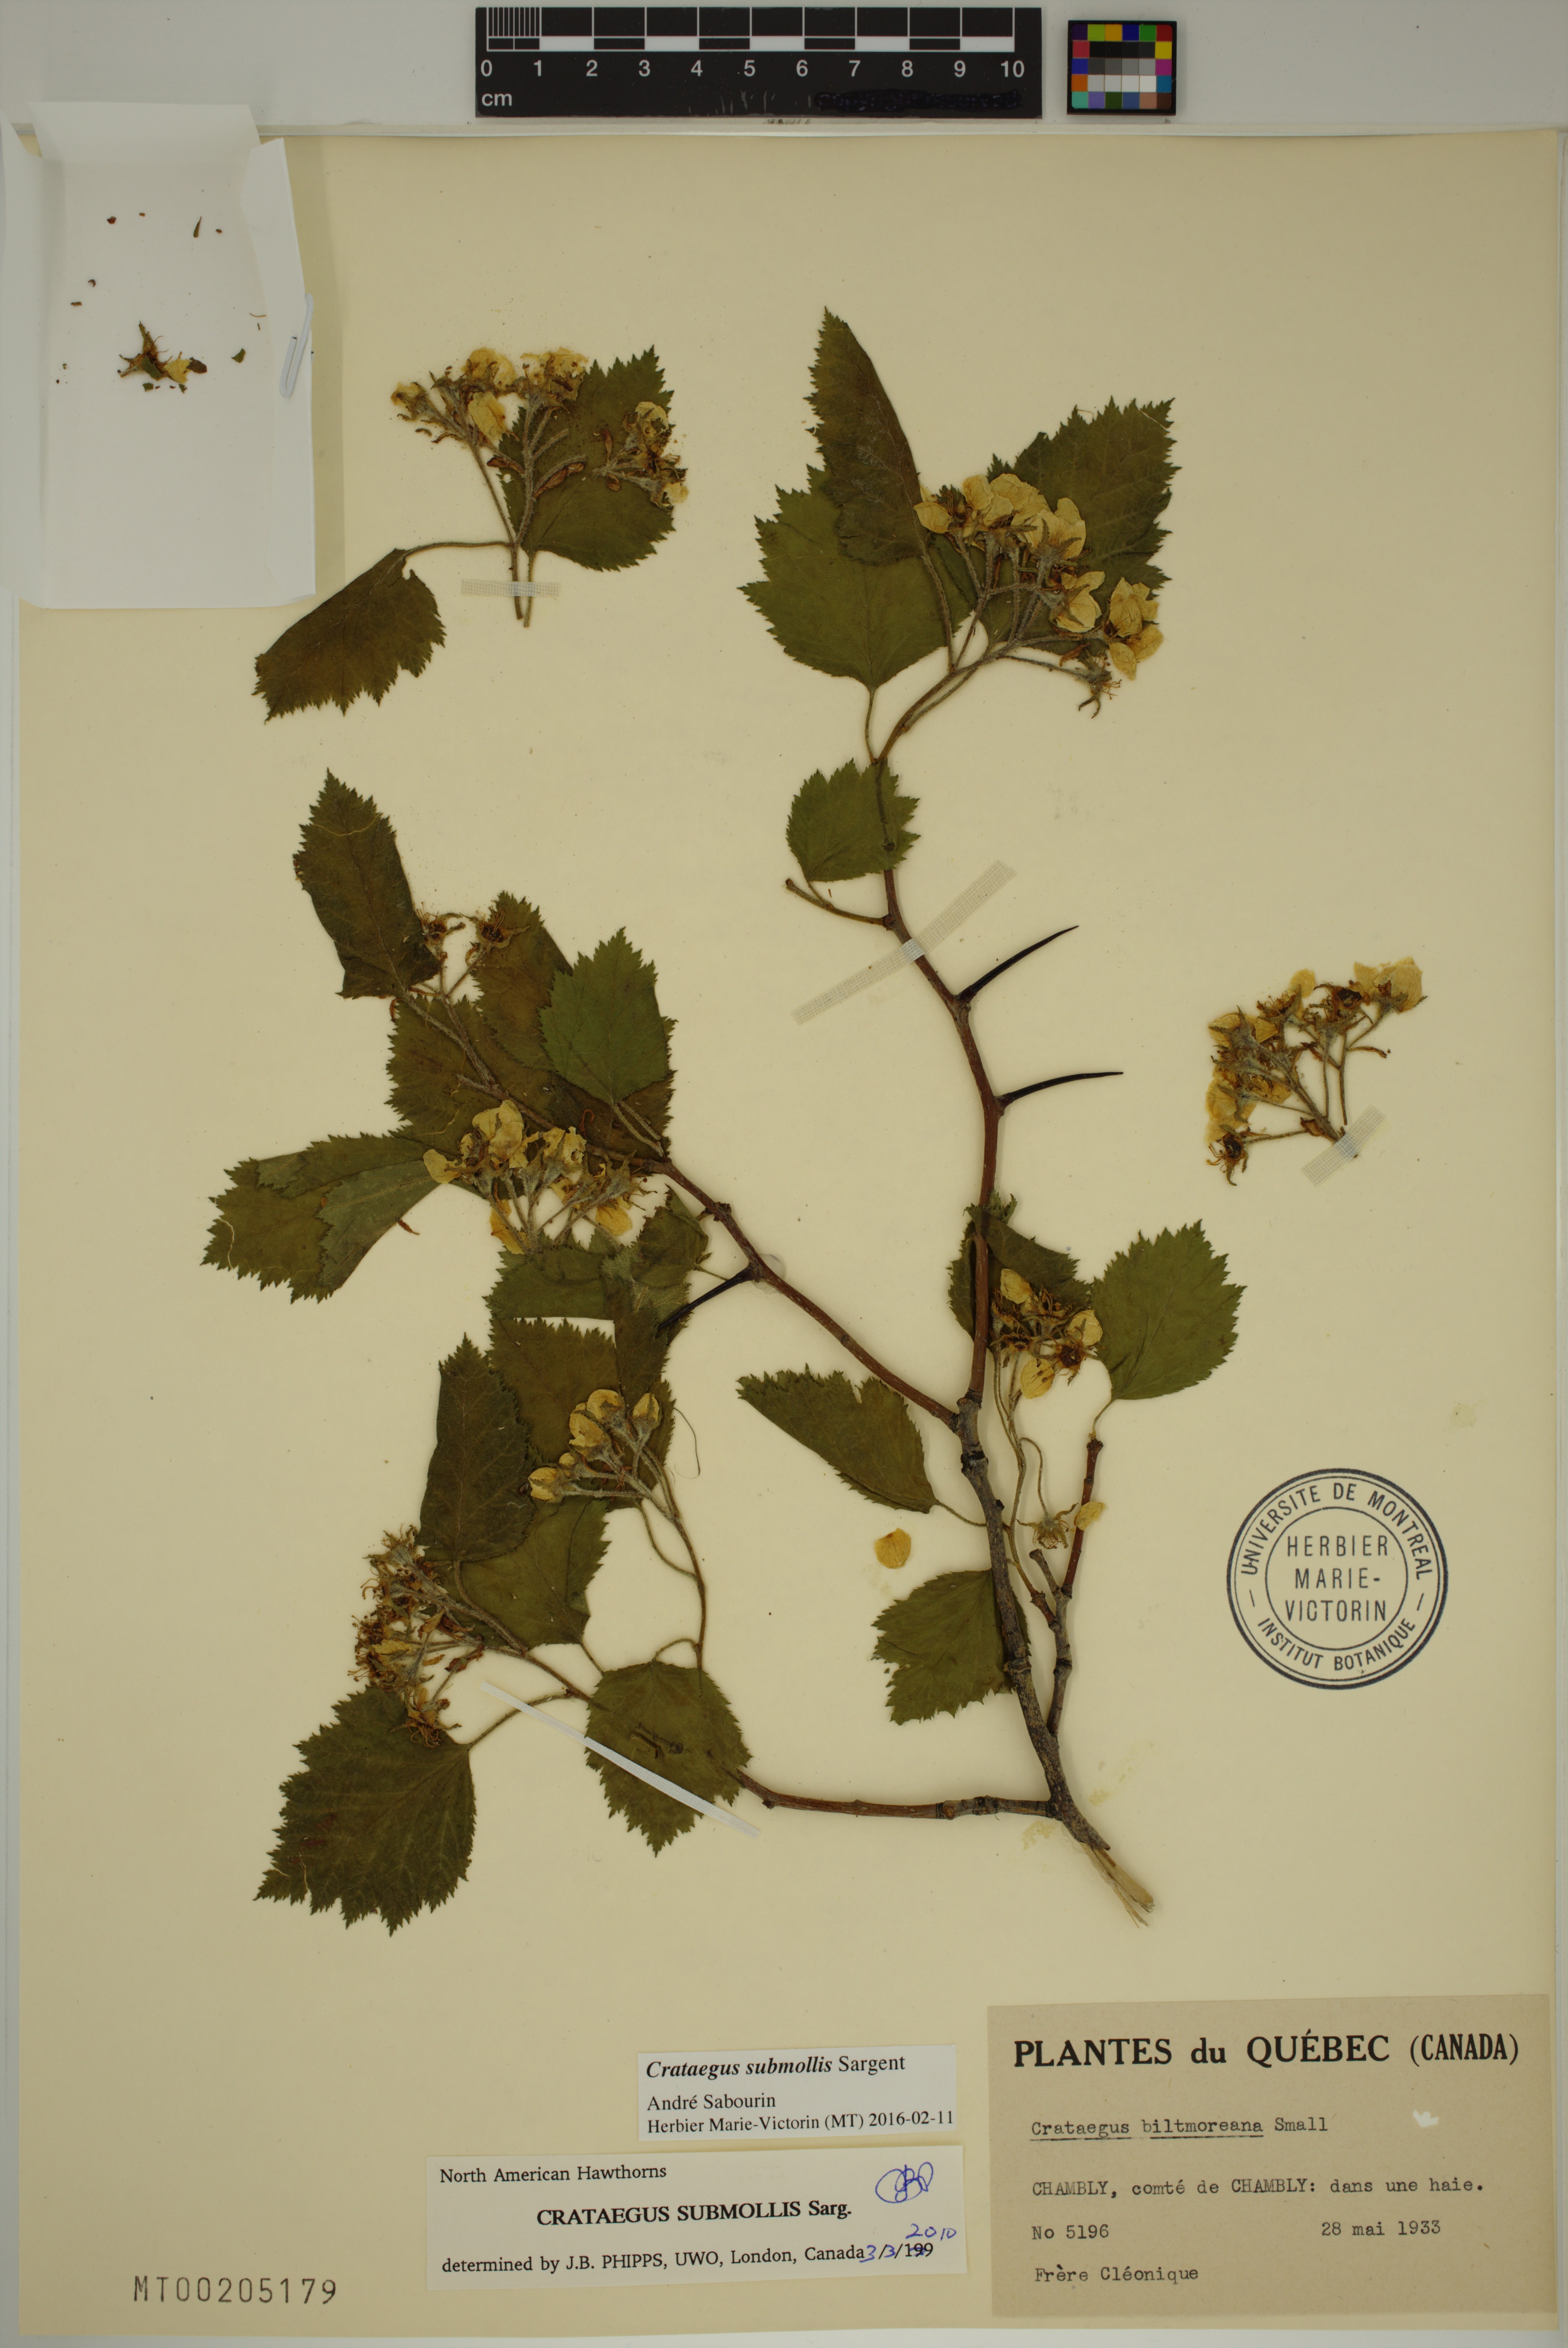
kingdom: Plantae
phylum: Tracheophyta
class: Magnoliopsida
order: Rosales
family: Rosaceae
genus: Crataegus
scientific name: Crataegus submollis
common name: Hairy cockspurthorn
